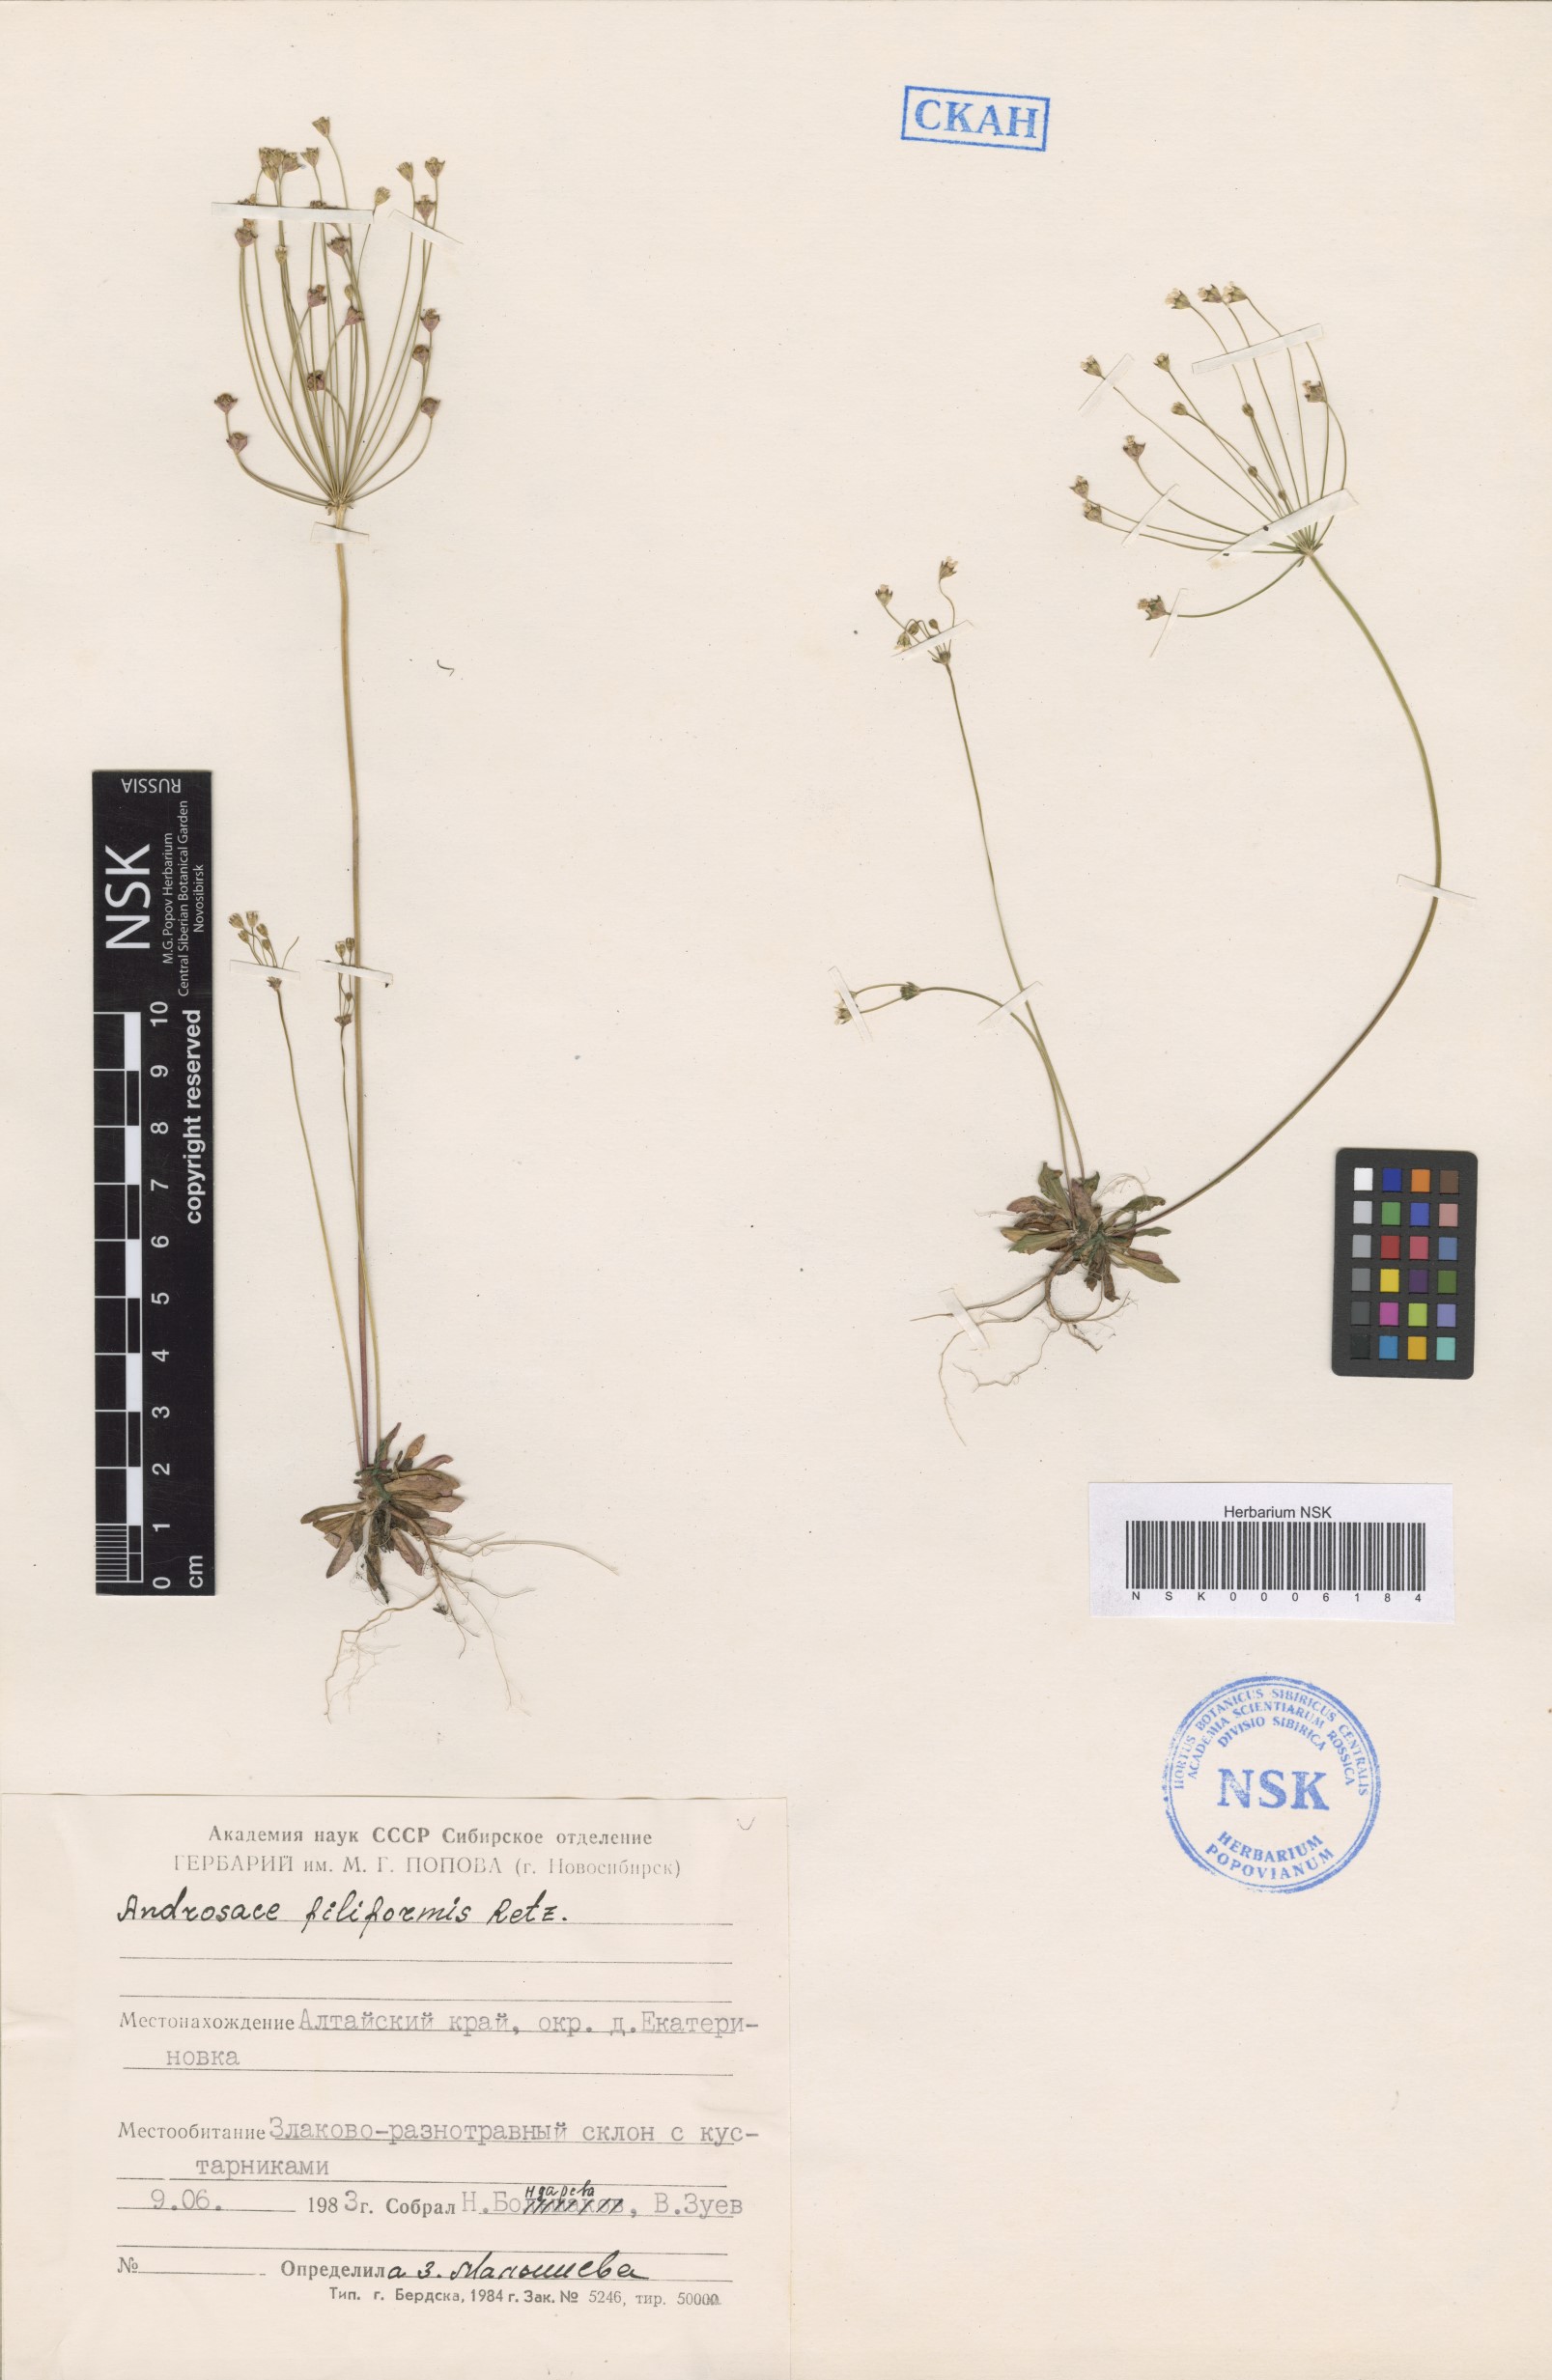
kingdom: Plantae
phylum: Tracheophyta
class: Magnoliopsida
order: Ericales
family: Primulaceae
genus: Androsace
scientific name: Androsace filiformis
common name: Filiform rock jasmine
